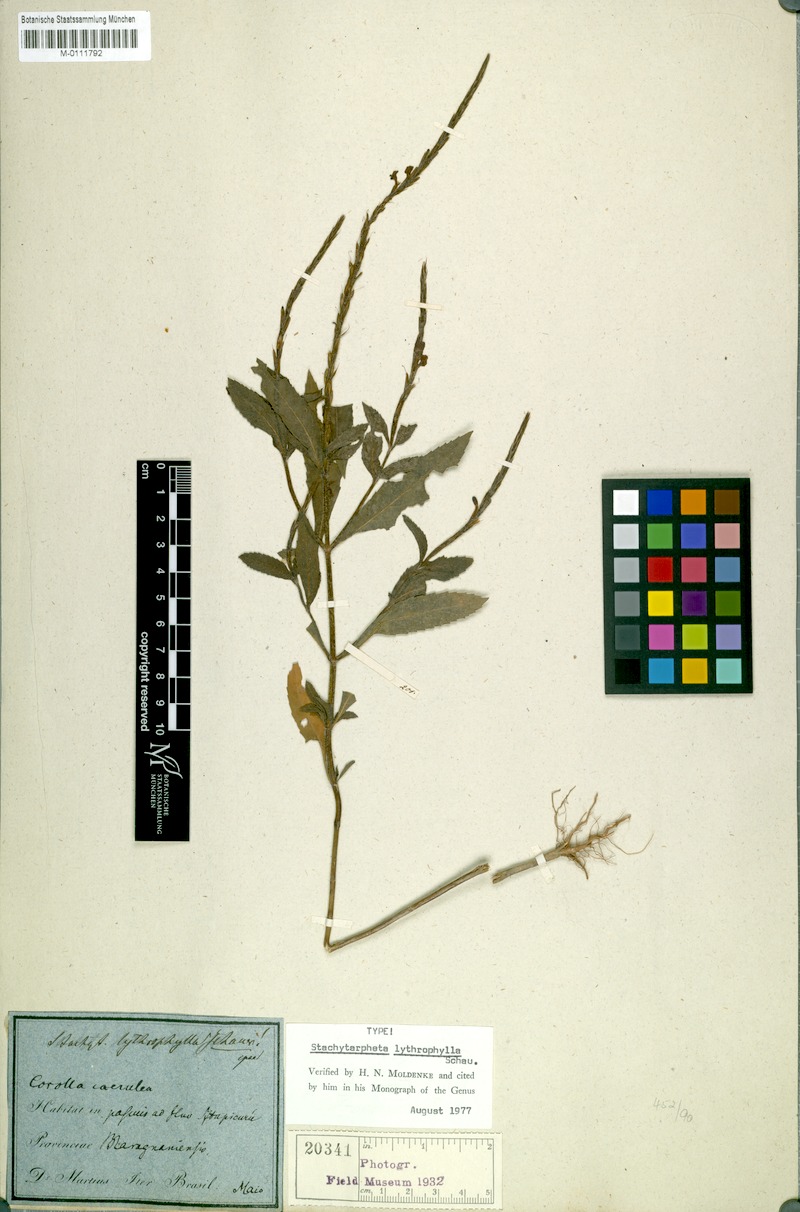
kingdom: Plantae
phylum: Tracheophyta
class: Magnoliopsida
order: Lamiales
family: Verbenaceae
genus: Stachytarpheta
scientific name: Stachytarpheta lythrophylla
